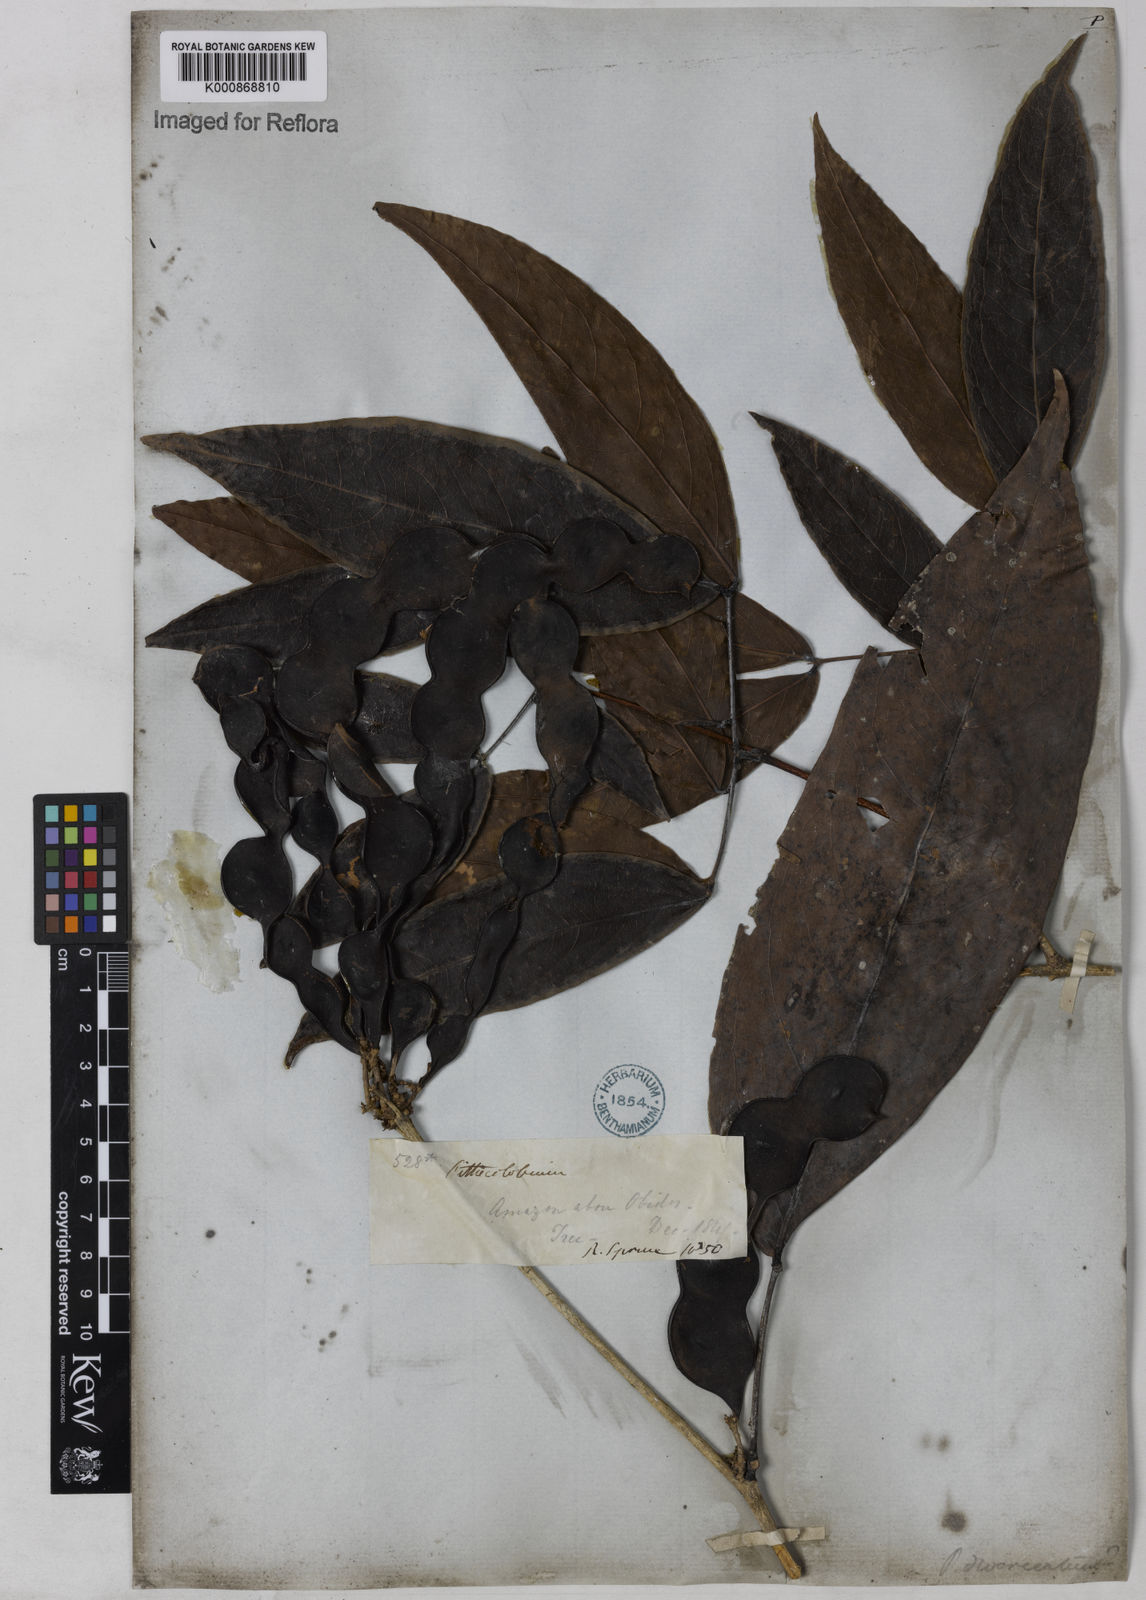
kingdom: Plantae
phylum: Tracheophyta
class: Magnoliopsida
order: Fabales
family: Fabaceae
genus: Zygia
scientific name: Zygia cataractae
